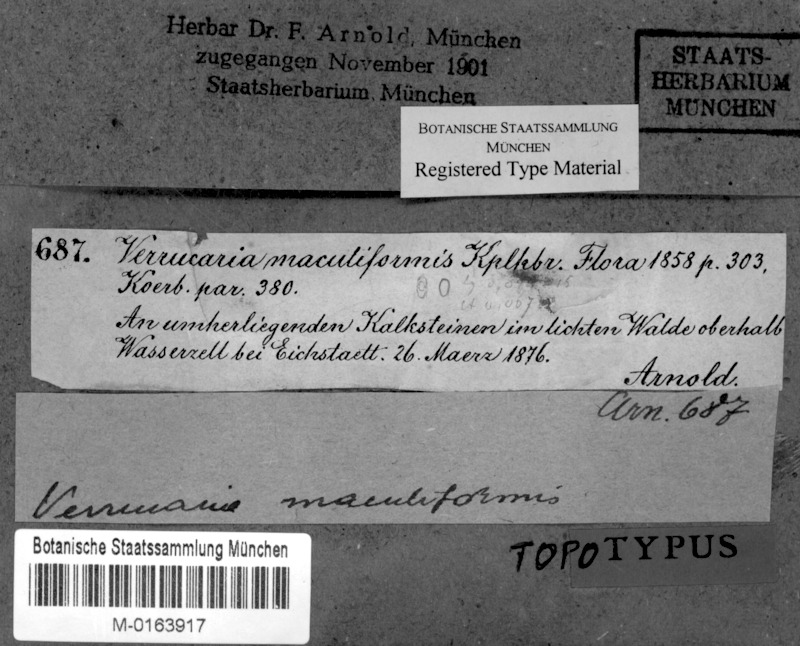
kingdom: Fungi
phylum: Ascomycota
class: Eurotiomycetes
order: Verrucariales
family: Verrucariaceae
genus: Verrucaria
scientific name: Verrucaria maculiformis
